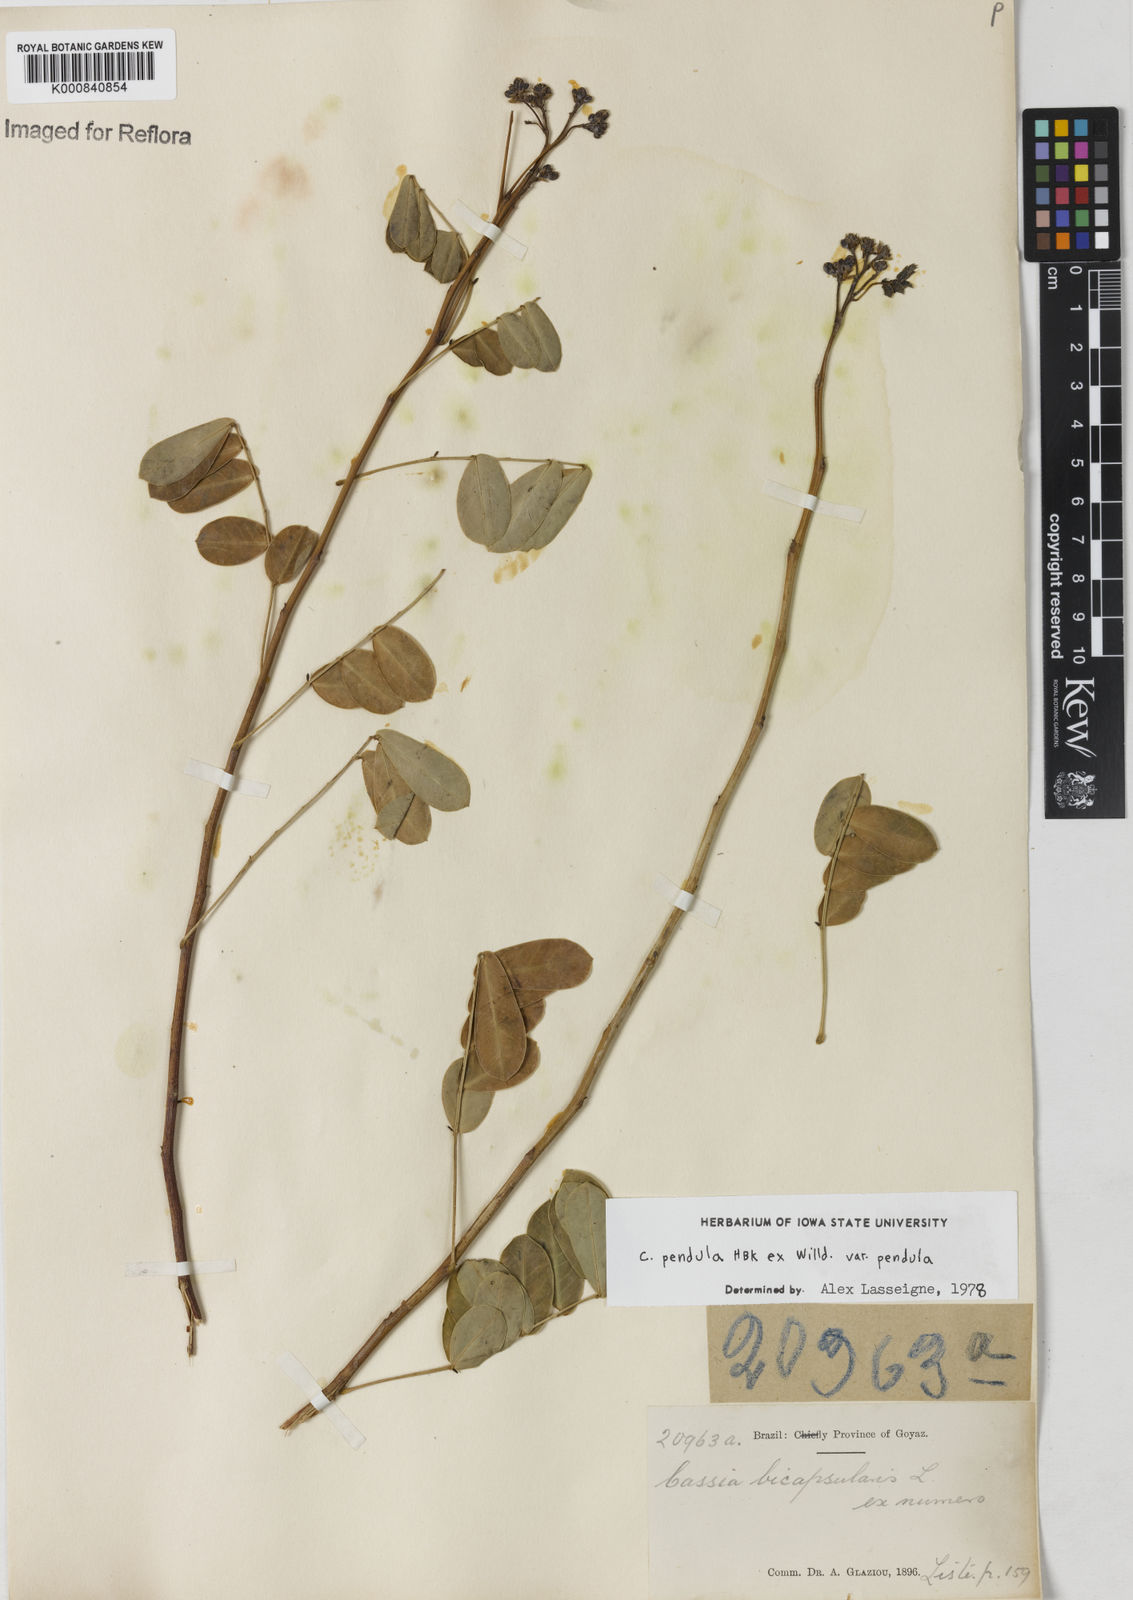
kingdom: Plantae
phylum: Tracheophyta
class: Magnoliopsida
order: Fabales
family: Fabaceae
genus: Senna
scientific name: Senna pendula
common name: Easter cassia
